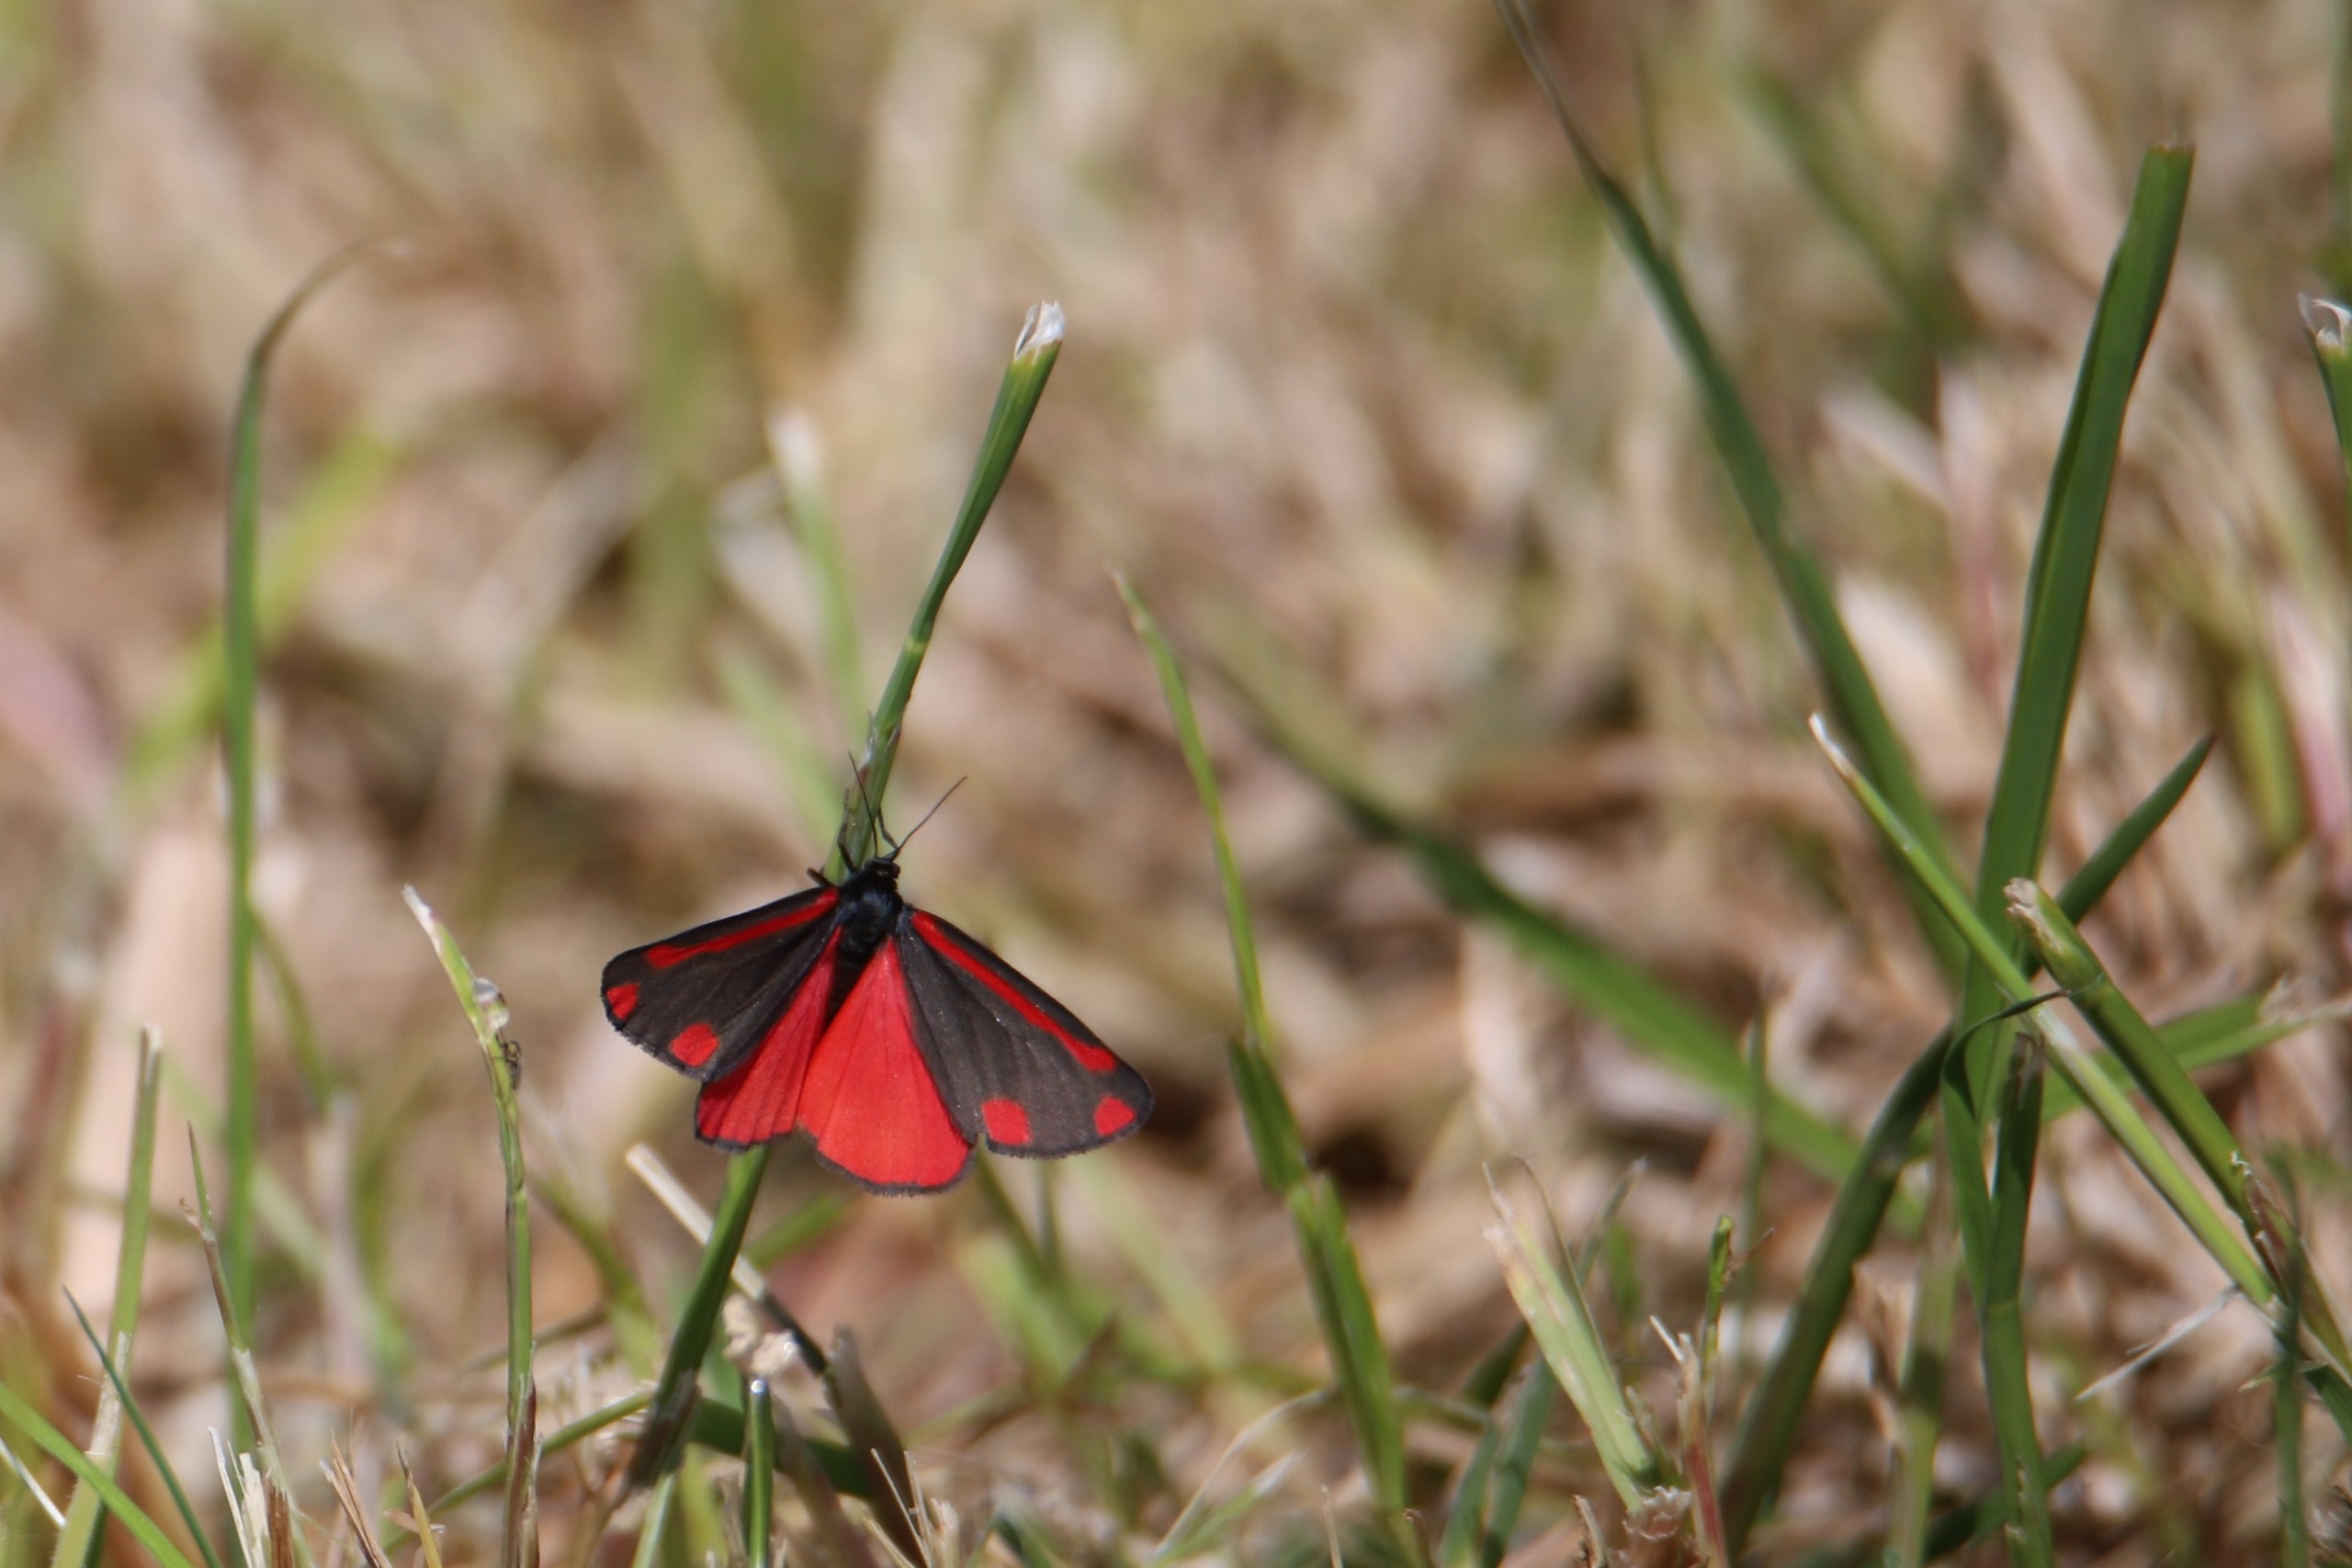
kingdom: Animalia
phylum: Arthropoda
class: Insecta
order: Lepidoptera
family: Erebidae
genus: Tyria
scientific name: Tyria jacobaeae
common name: Blodplet
